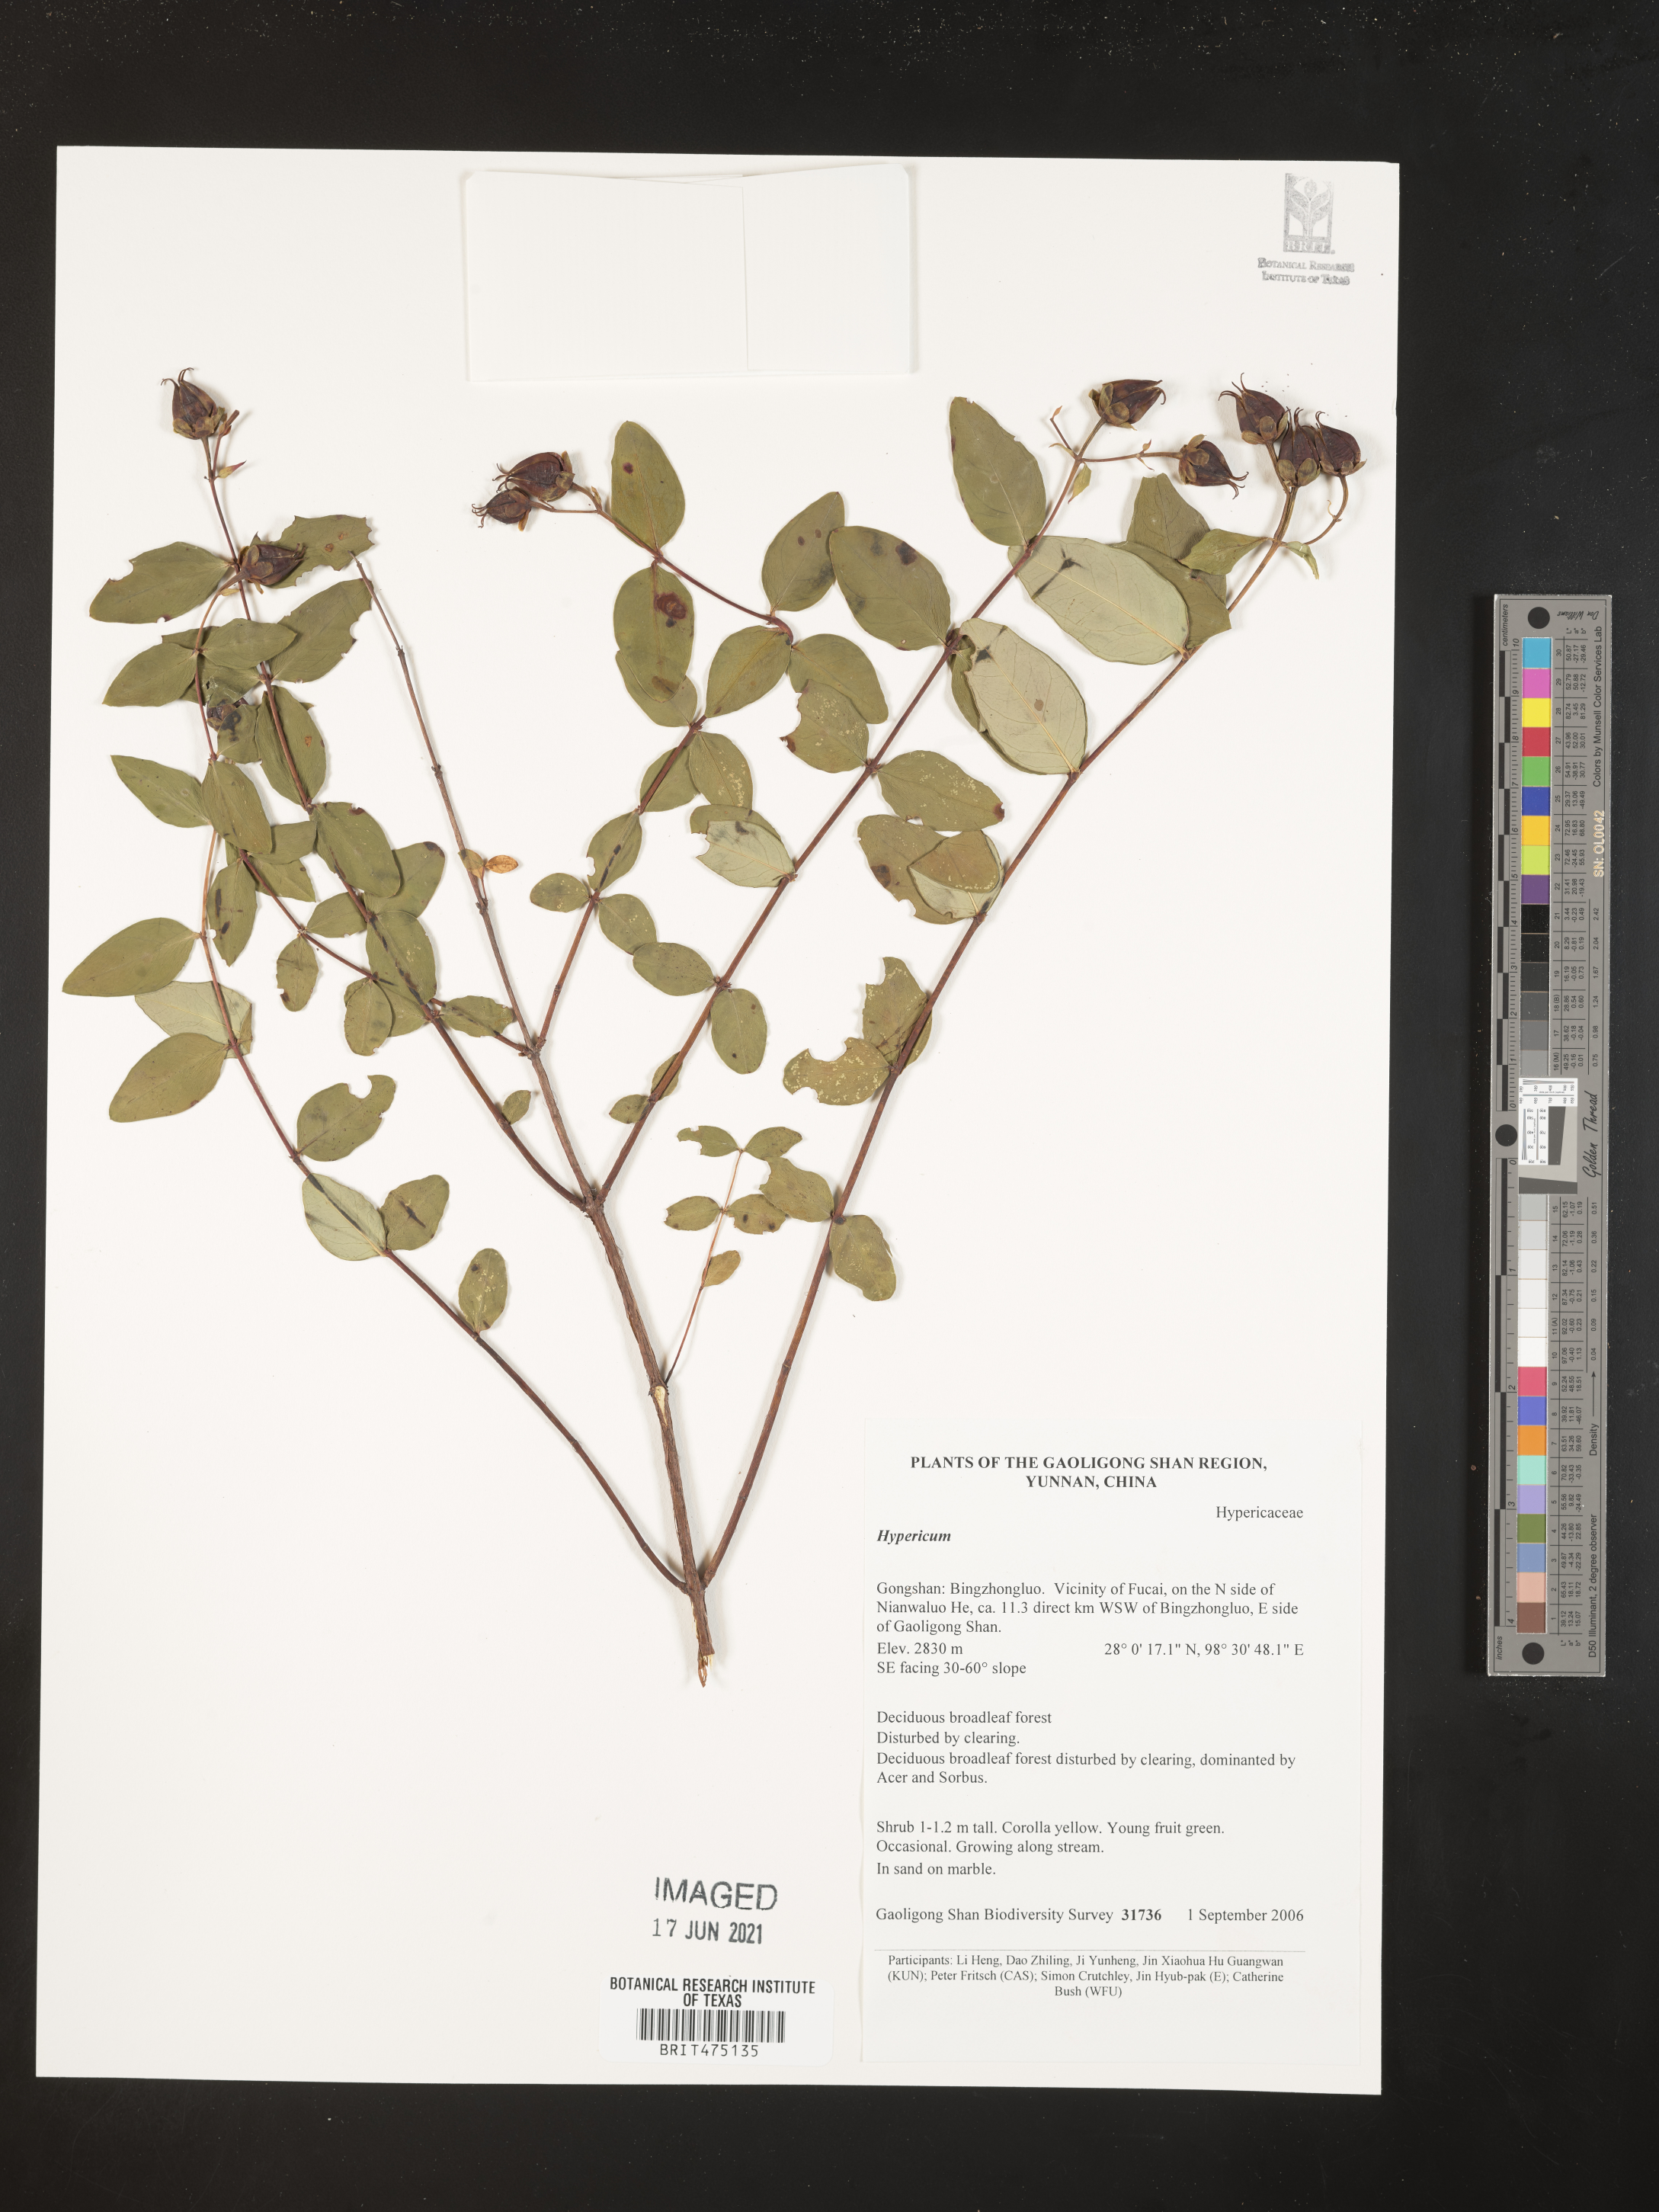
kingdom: Plantae
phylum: Tracheophyta
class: Magnoliopsida
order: Malpighiales
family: Hypericaceae
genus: Hypericum
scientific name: Hypericum
